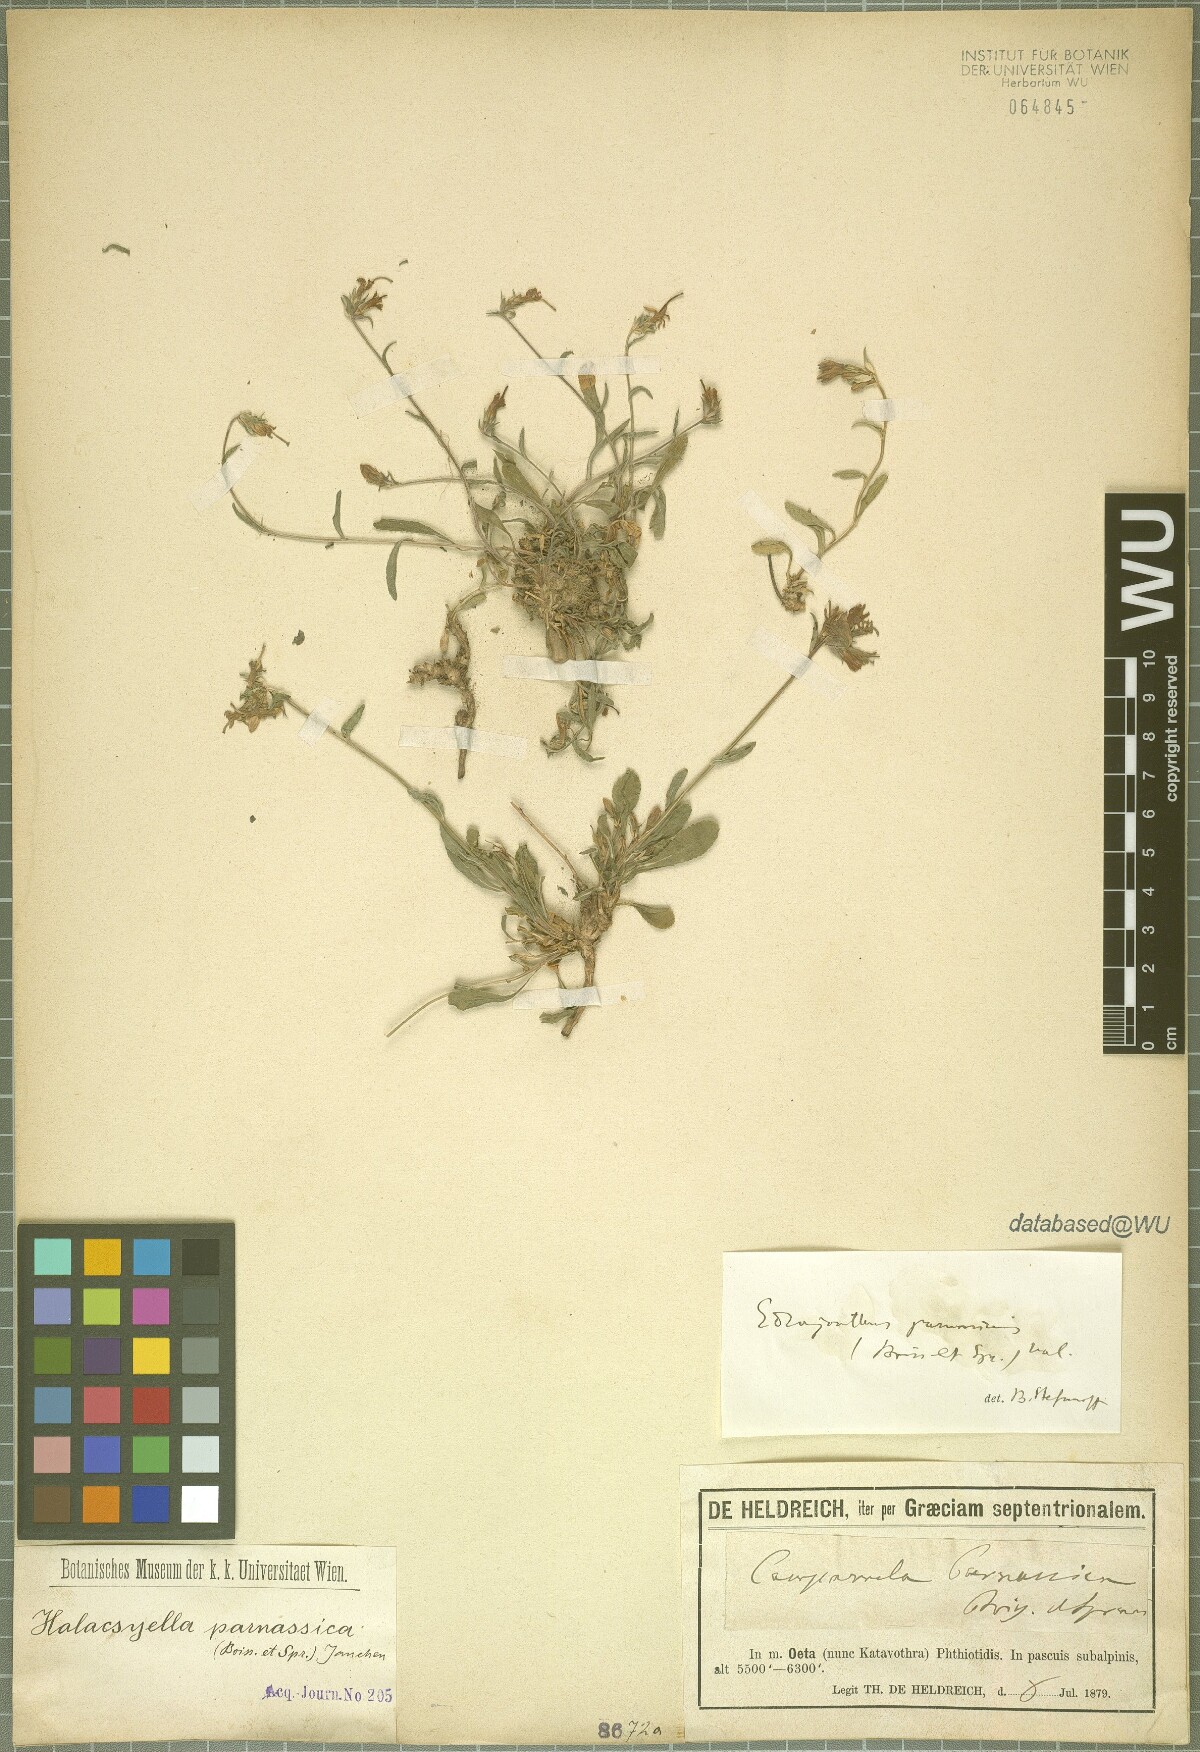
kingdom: Plantae
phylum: Tracheophyta
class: Magnoliopsida
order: Asterales
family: Campanulaceae
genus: Campanula
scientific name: Campanula parnassica
